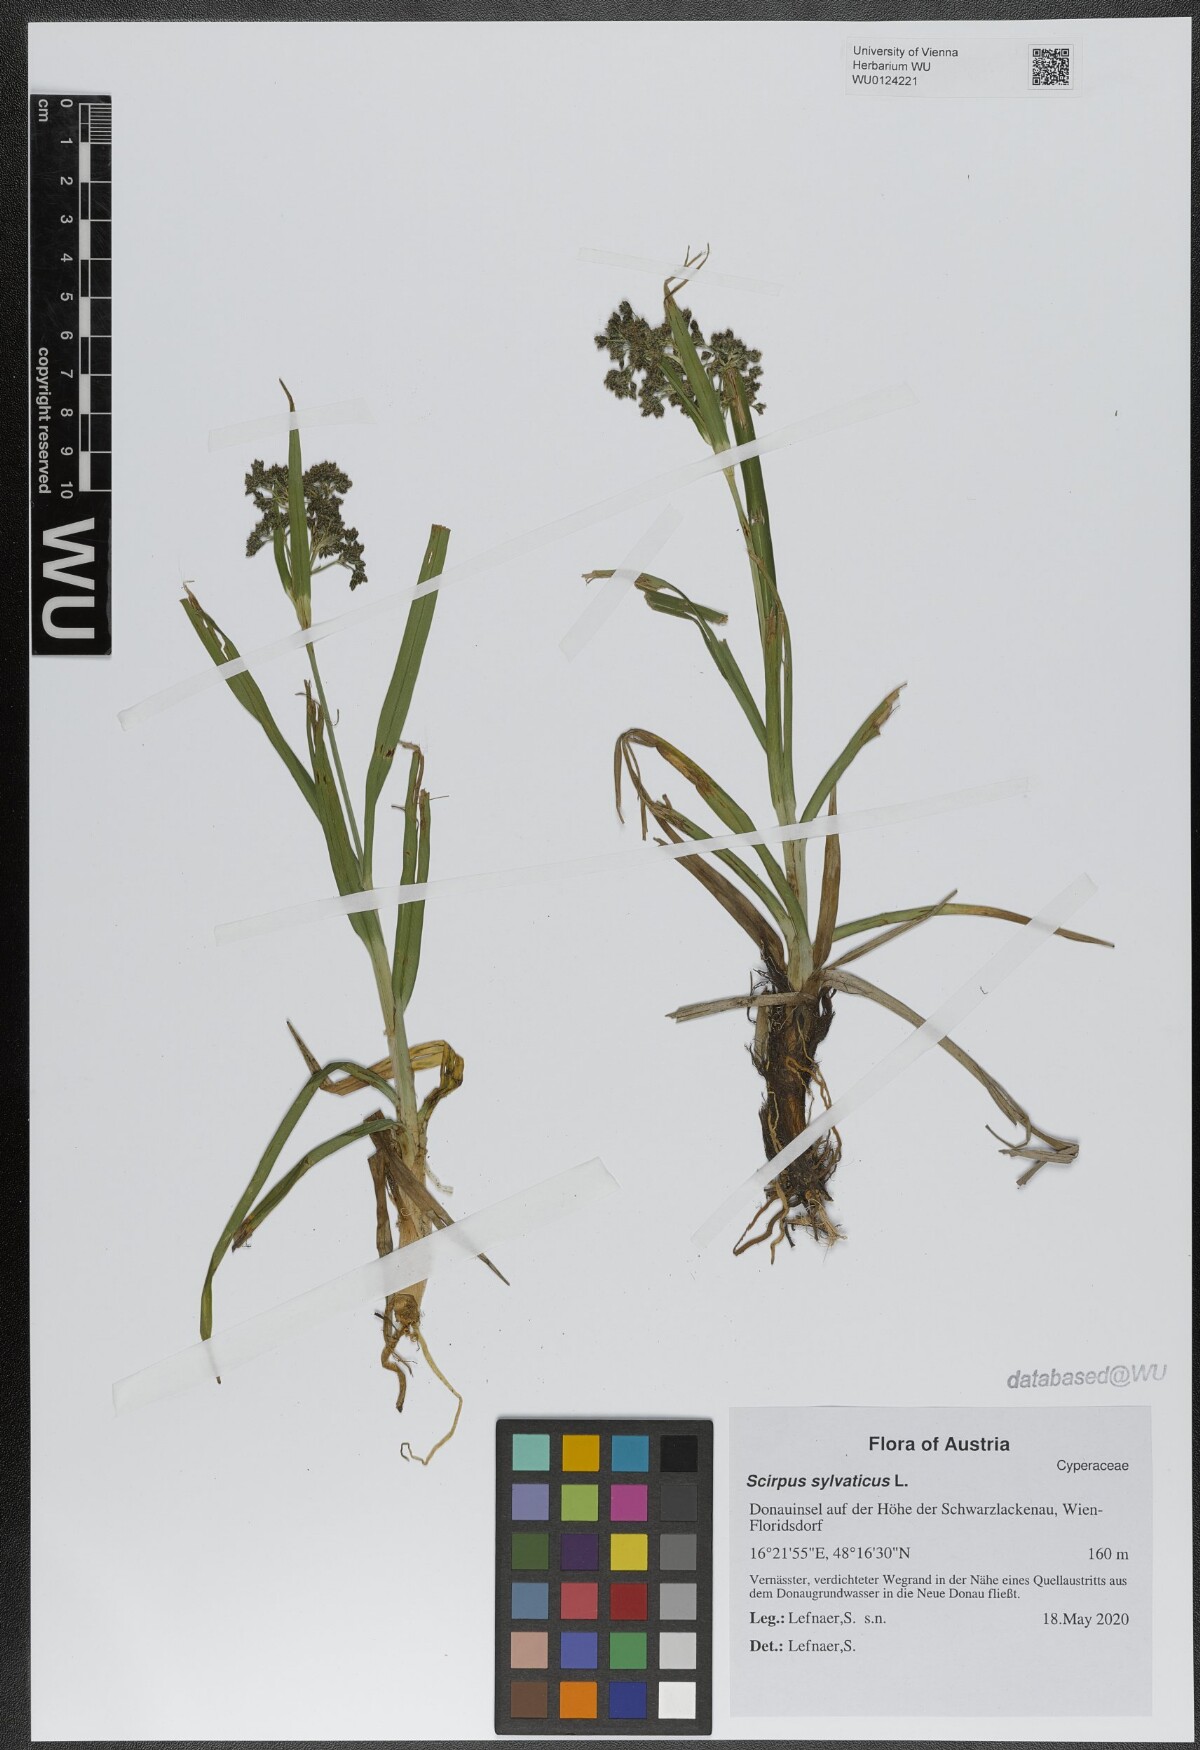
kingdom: Plantae
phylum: Tracheophyta
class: Liliopsida
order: Poales
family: Cyperaceae
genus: Scirpus
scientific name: Scirpus sylvaticus
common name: Wood club-rush
